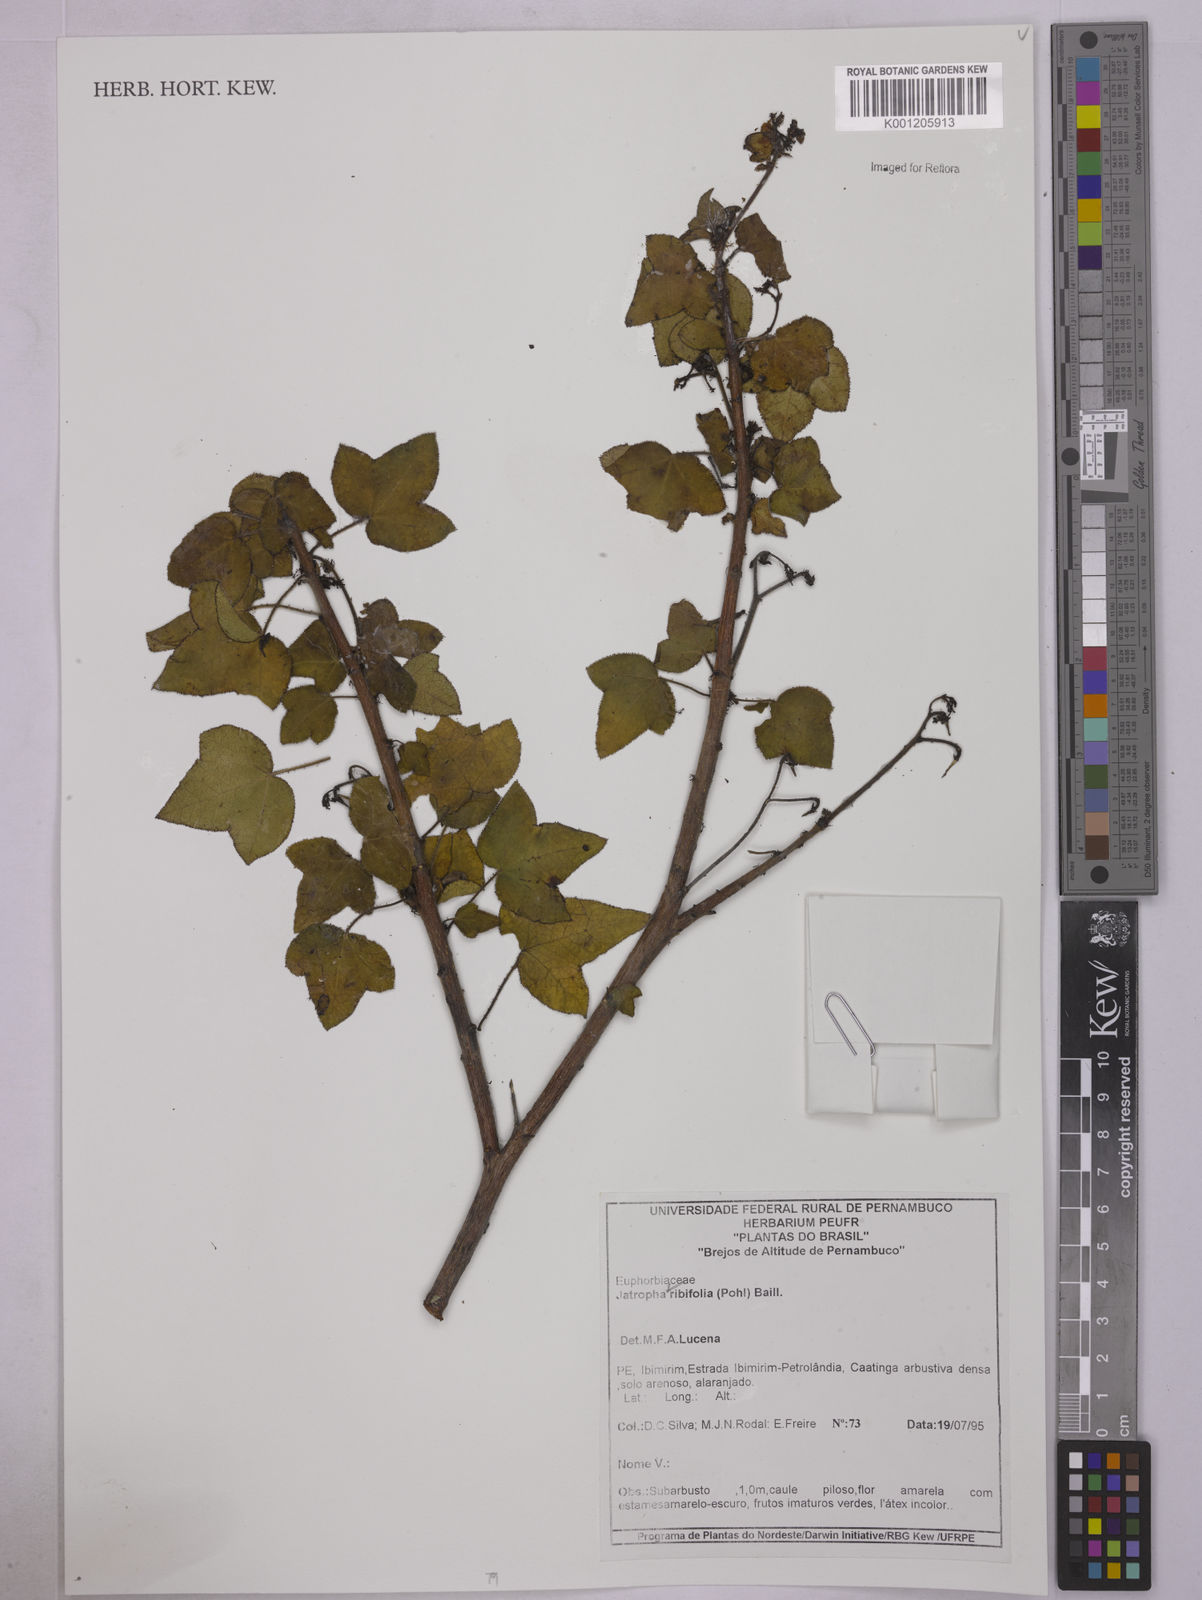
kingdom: Plantae
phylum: Tracheophyta
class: Magnoliopsida
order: Malpighiales
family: Euphorbiaceae
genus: Jatropha
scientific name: Jatropha ribifolia
